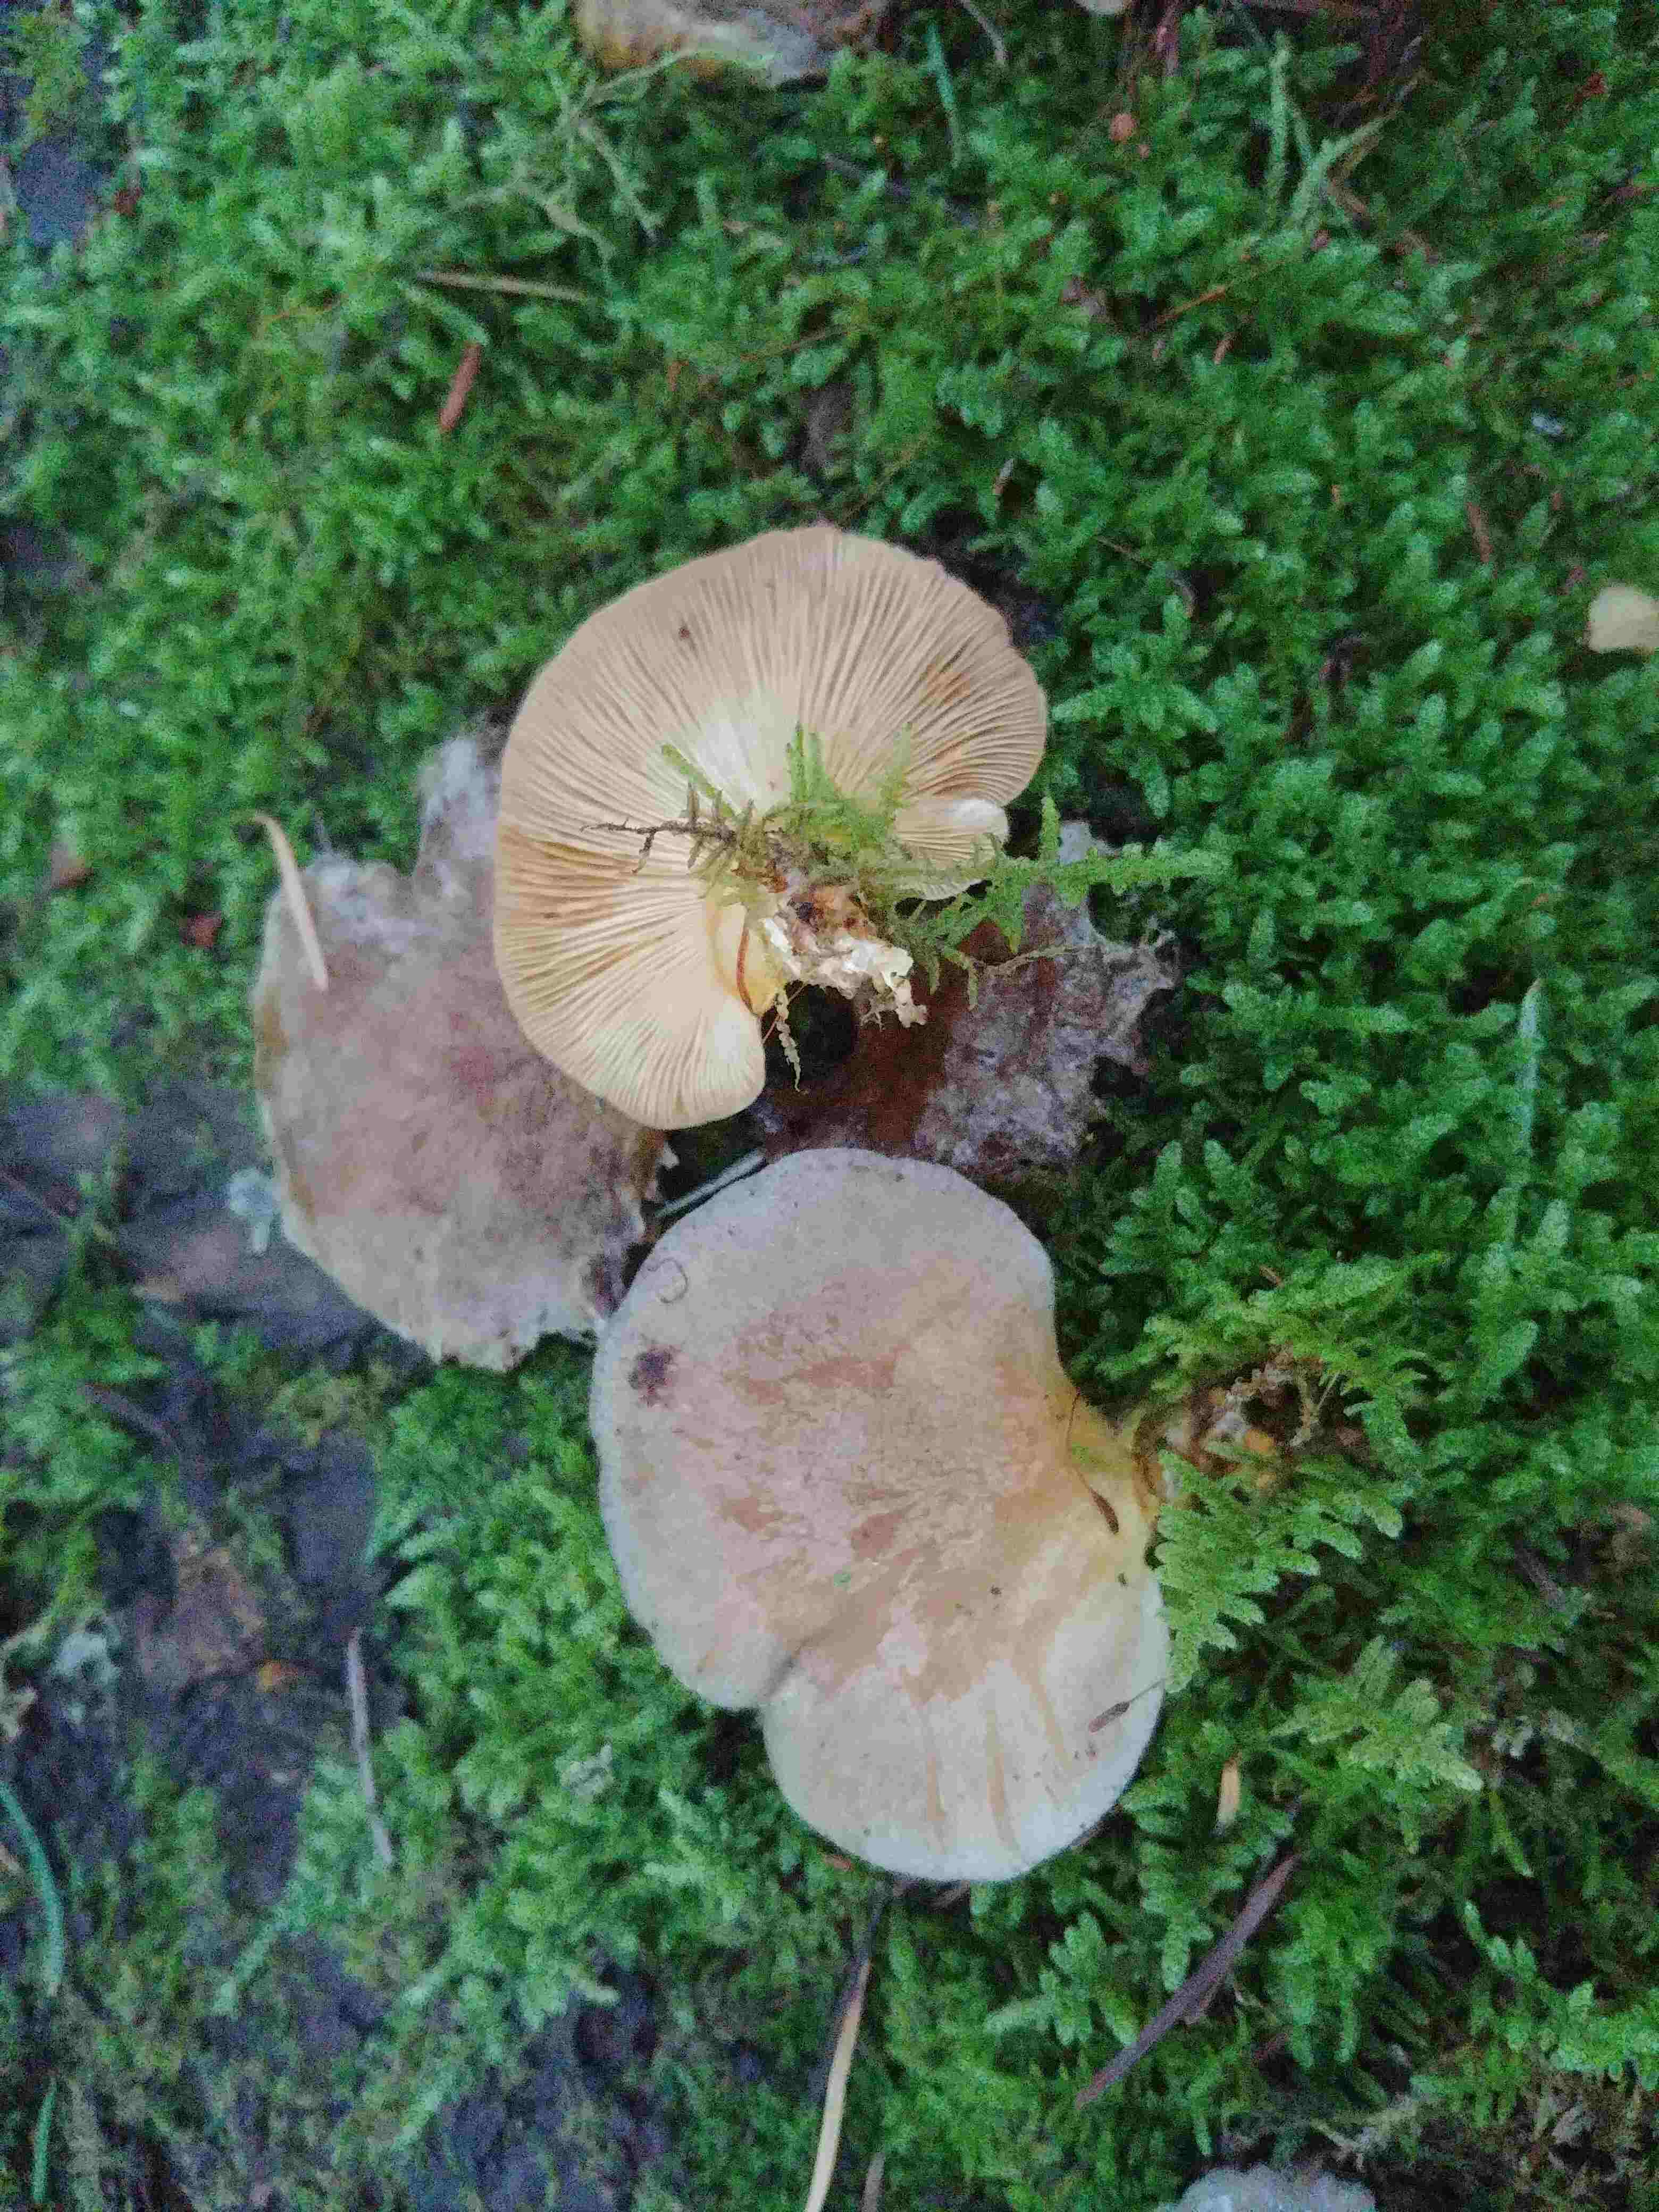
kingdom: Fungi
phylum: Basidiomycota
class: Agaricomycetes
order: Agaricales
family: Sarcomyxaceae
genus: Sarcomyxa
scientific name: Sarcomyxa serotina
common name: gummihat
